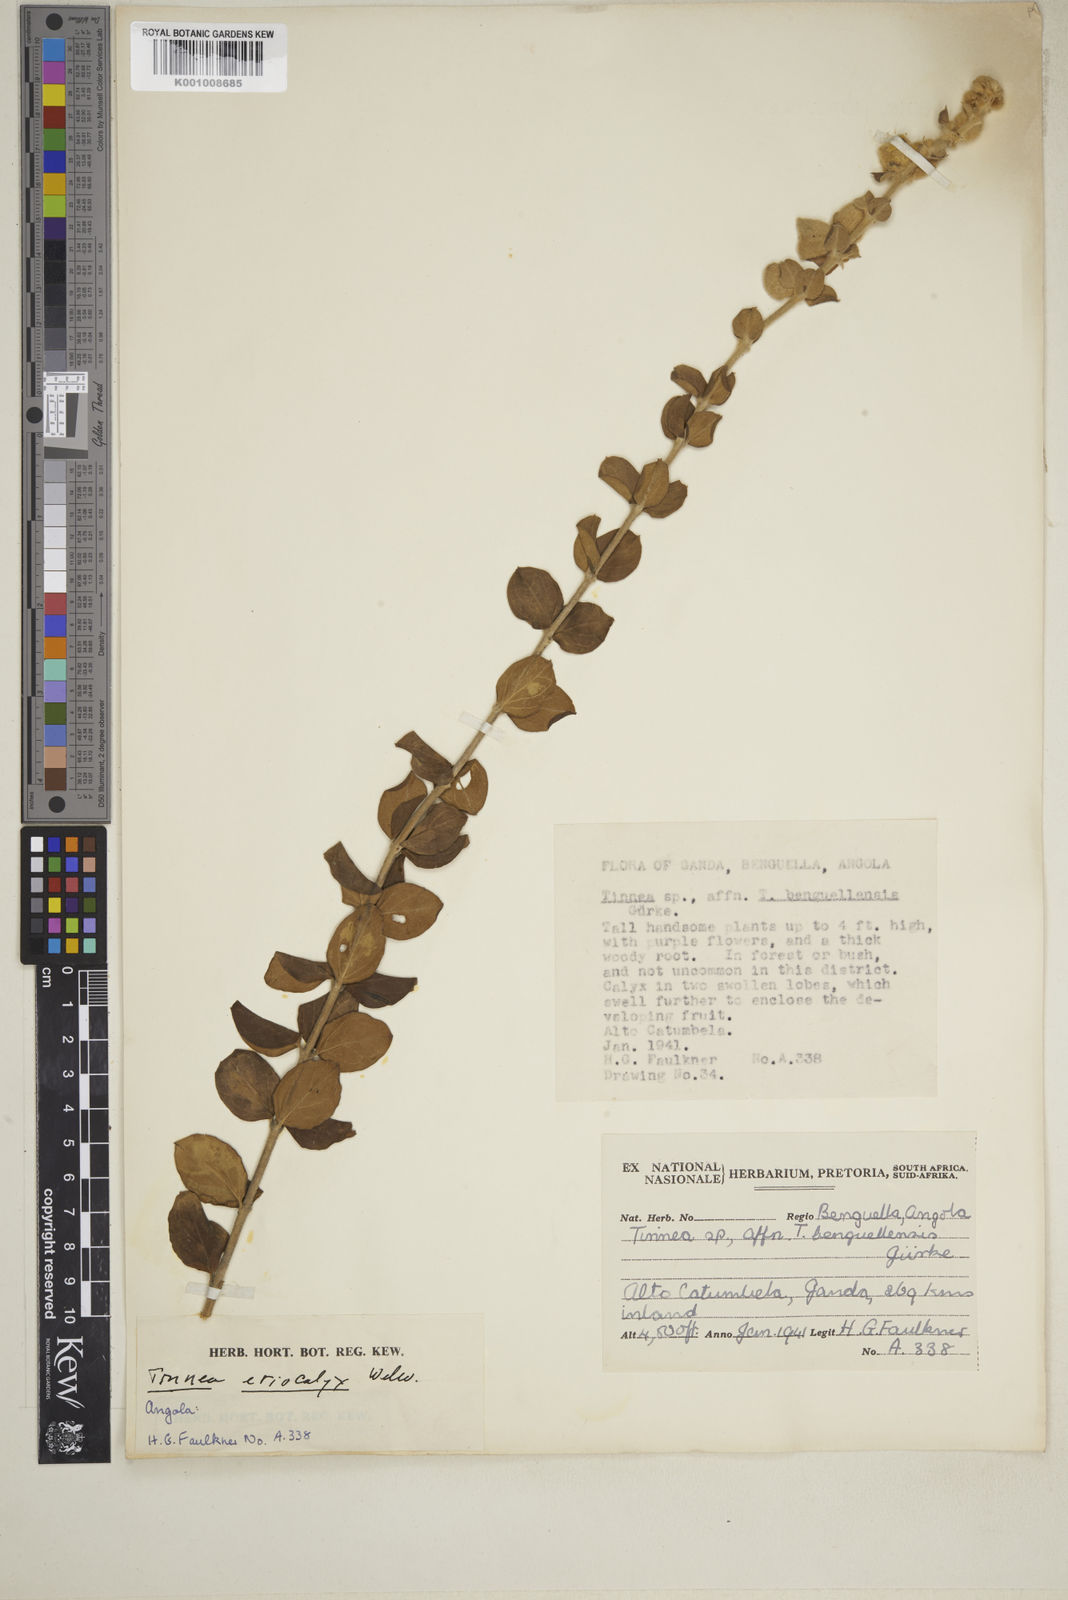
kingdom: Plantae
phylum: Tracheophyta
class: Magnoliopsida
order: Lamiales
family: Lamiaceae
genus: Tinnea
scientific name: Tinnea eriocalyx
